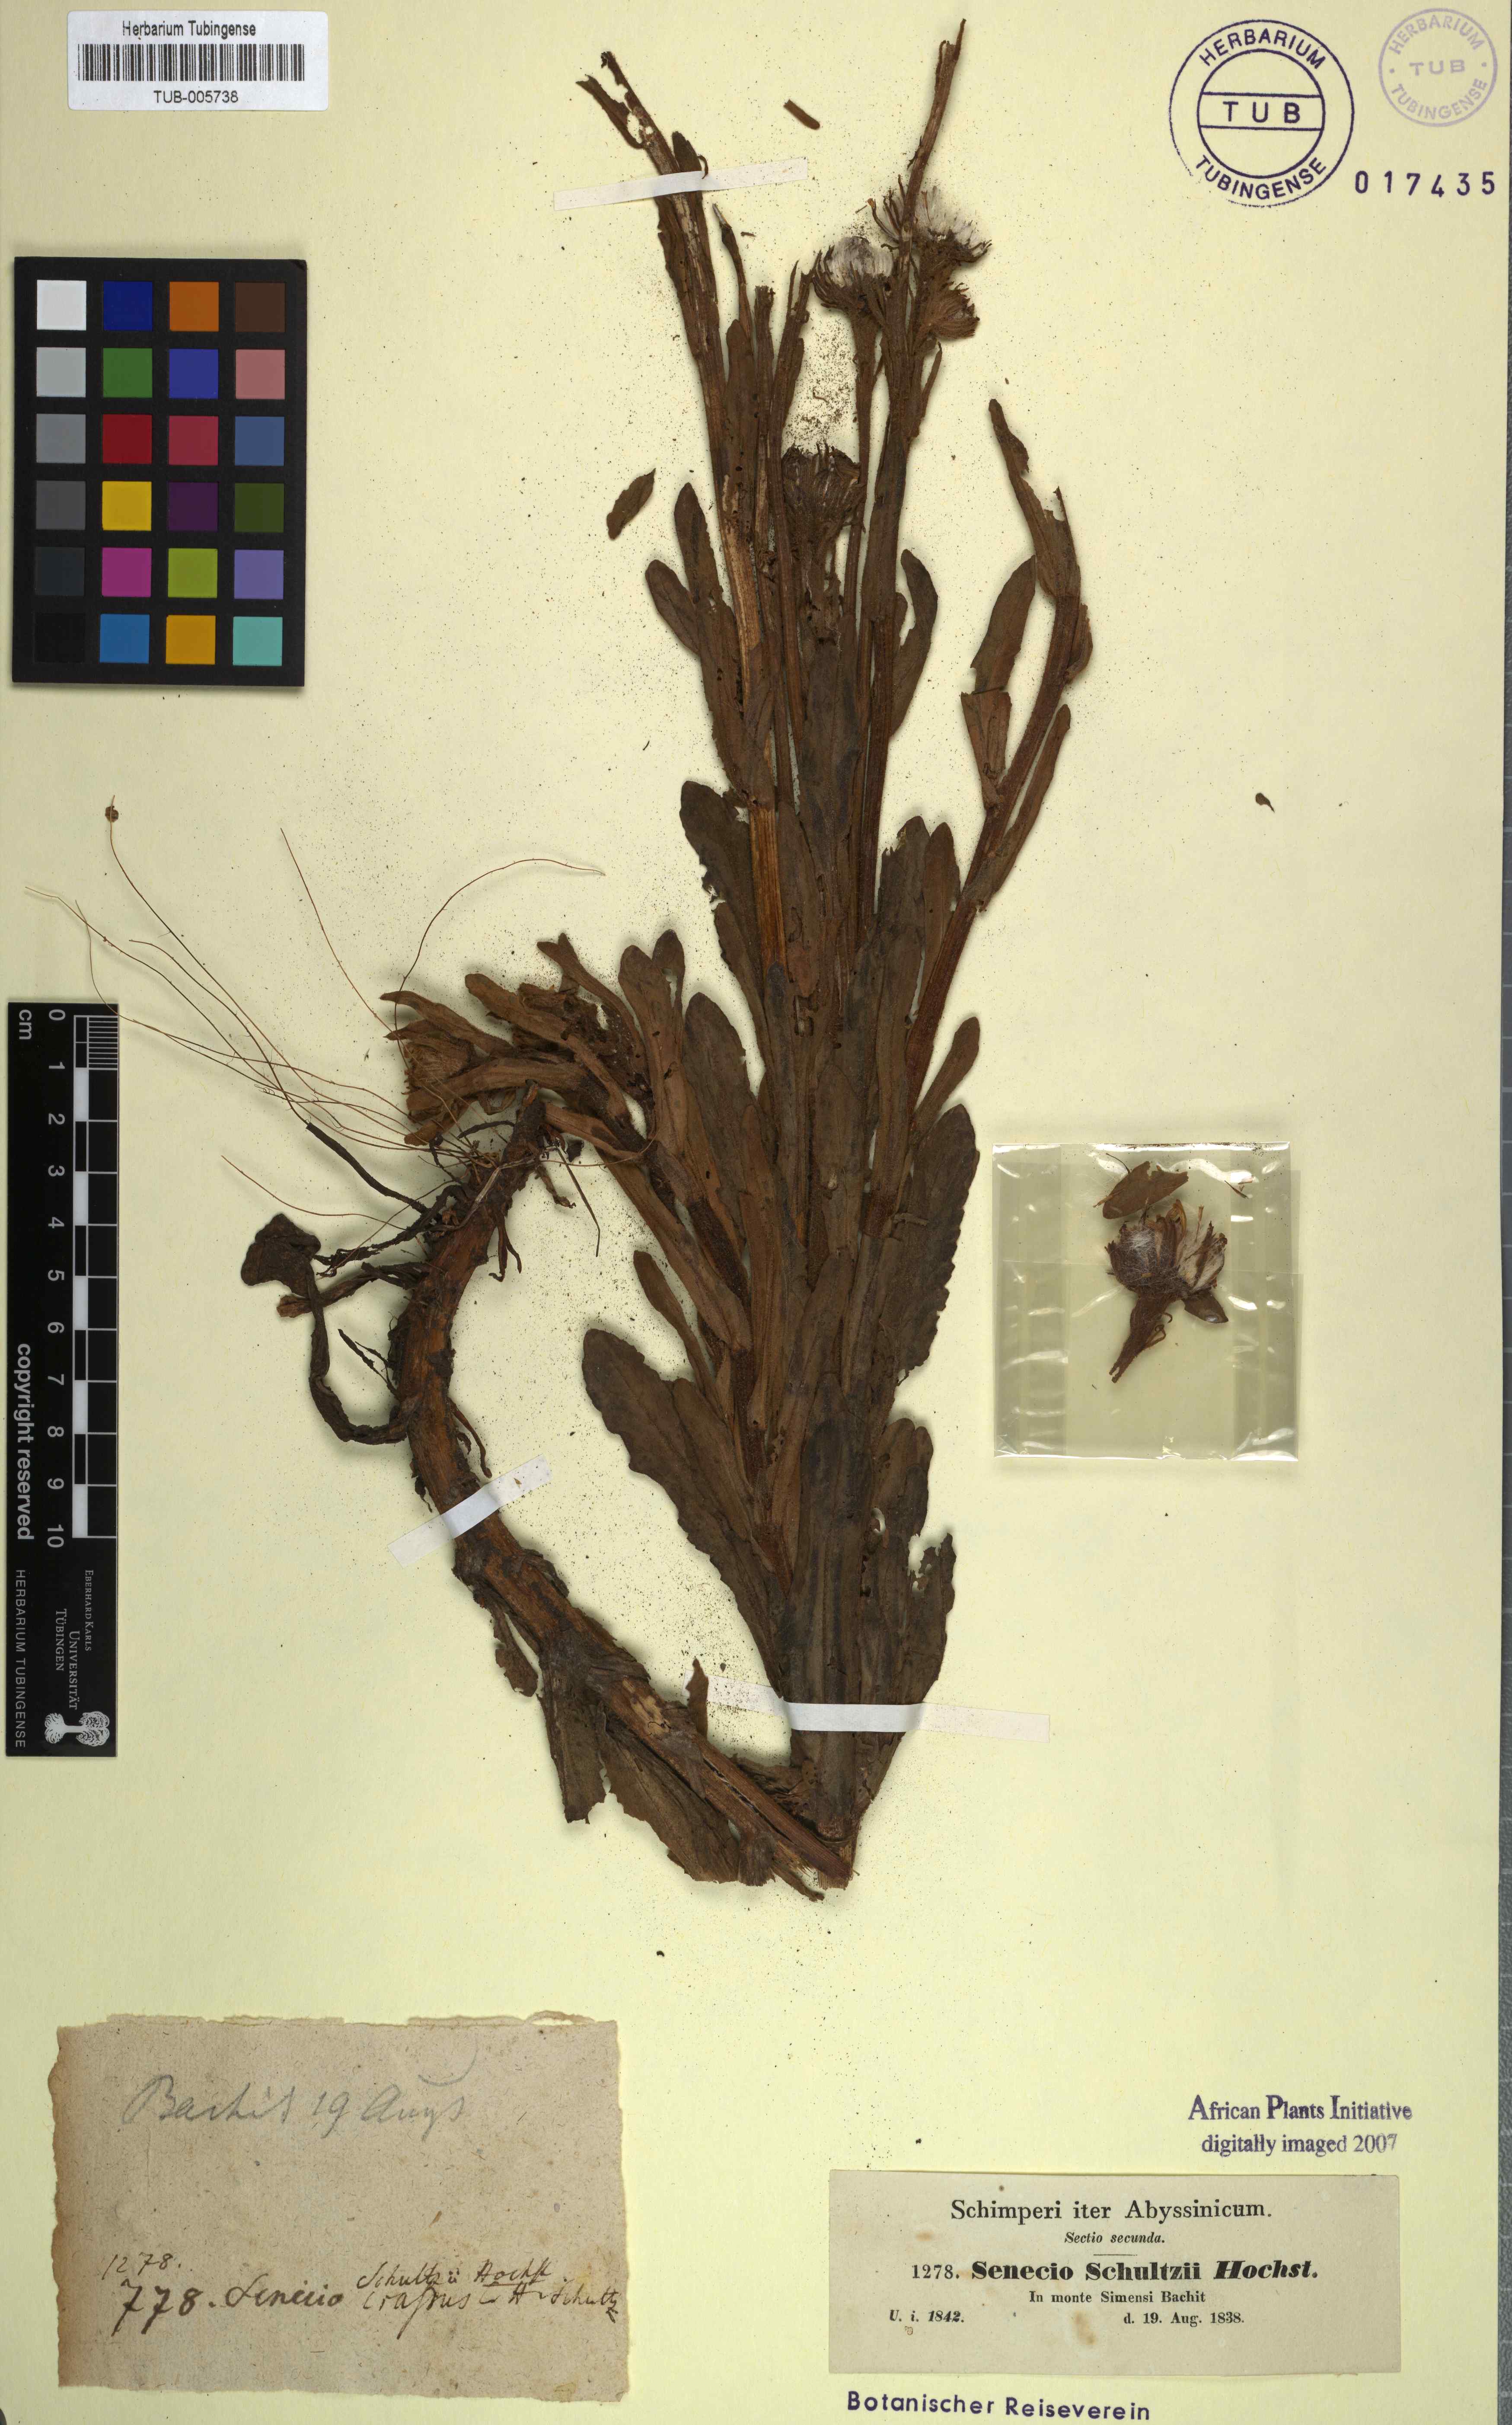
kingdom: Plantae
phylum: Tracheophyta
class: Magnoliopsida
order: Asterales
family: Asteraceae
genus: Senecio
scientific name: Senecio schultzii
